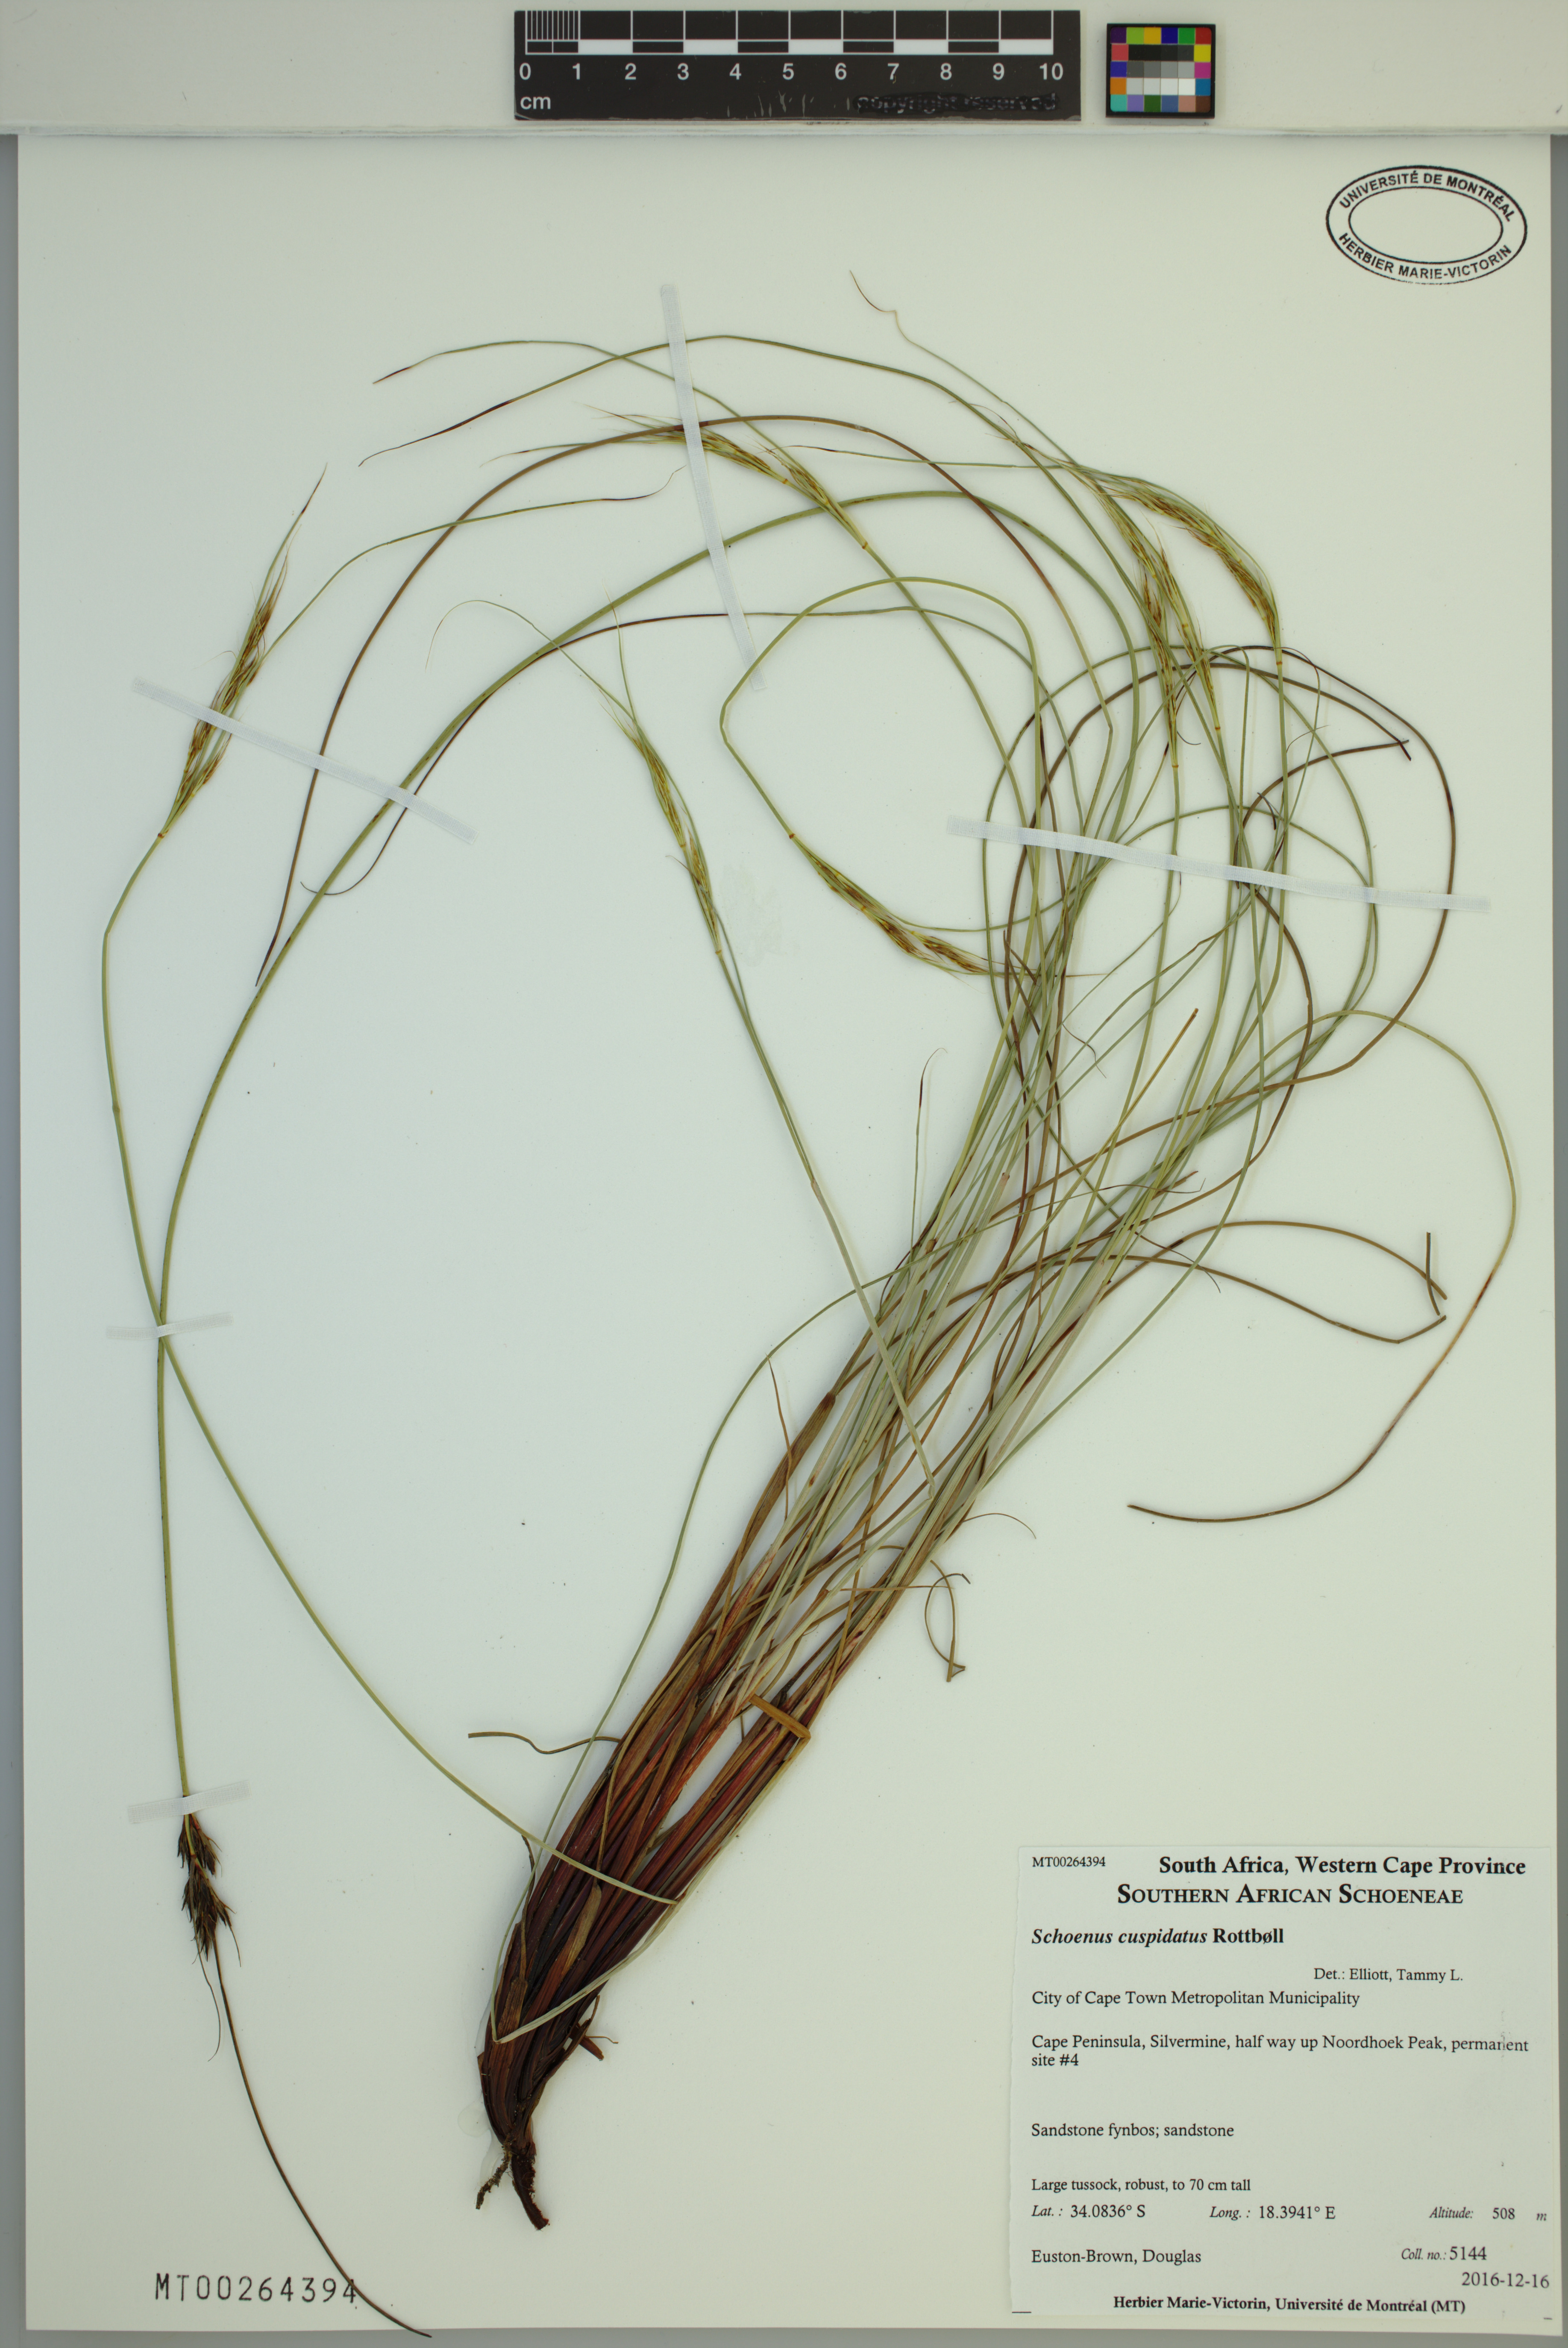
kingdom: Plantae
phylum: Tracheophyta
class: Liliopsida
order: Poales
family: Cyperaceae
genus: Schoenus
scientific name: Schoenus cuspidatus
